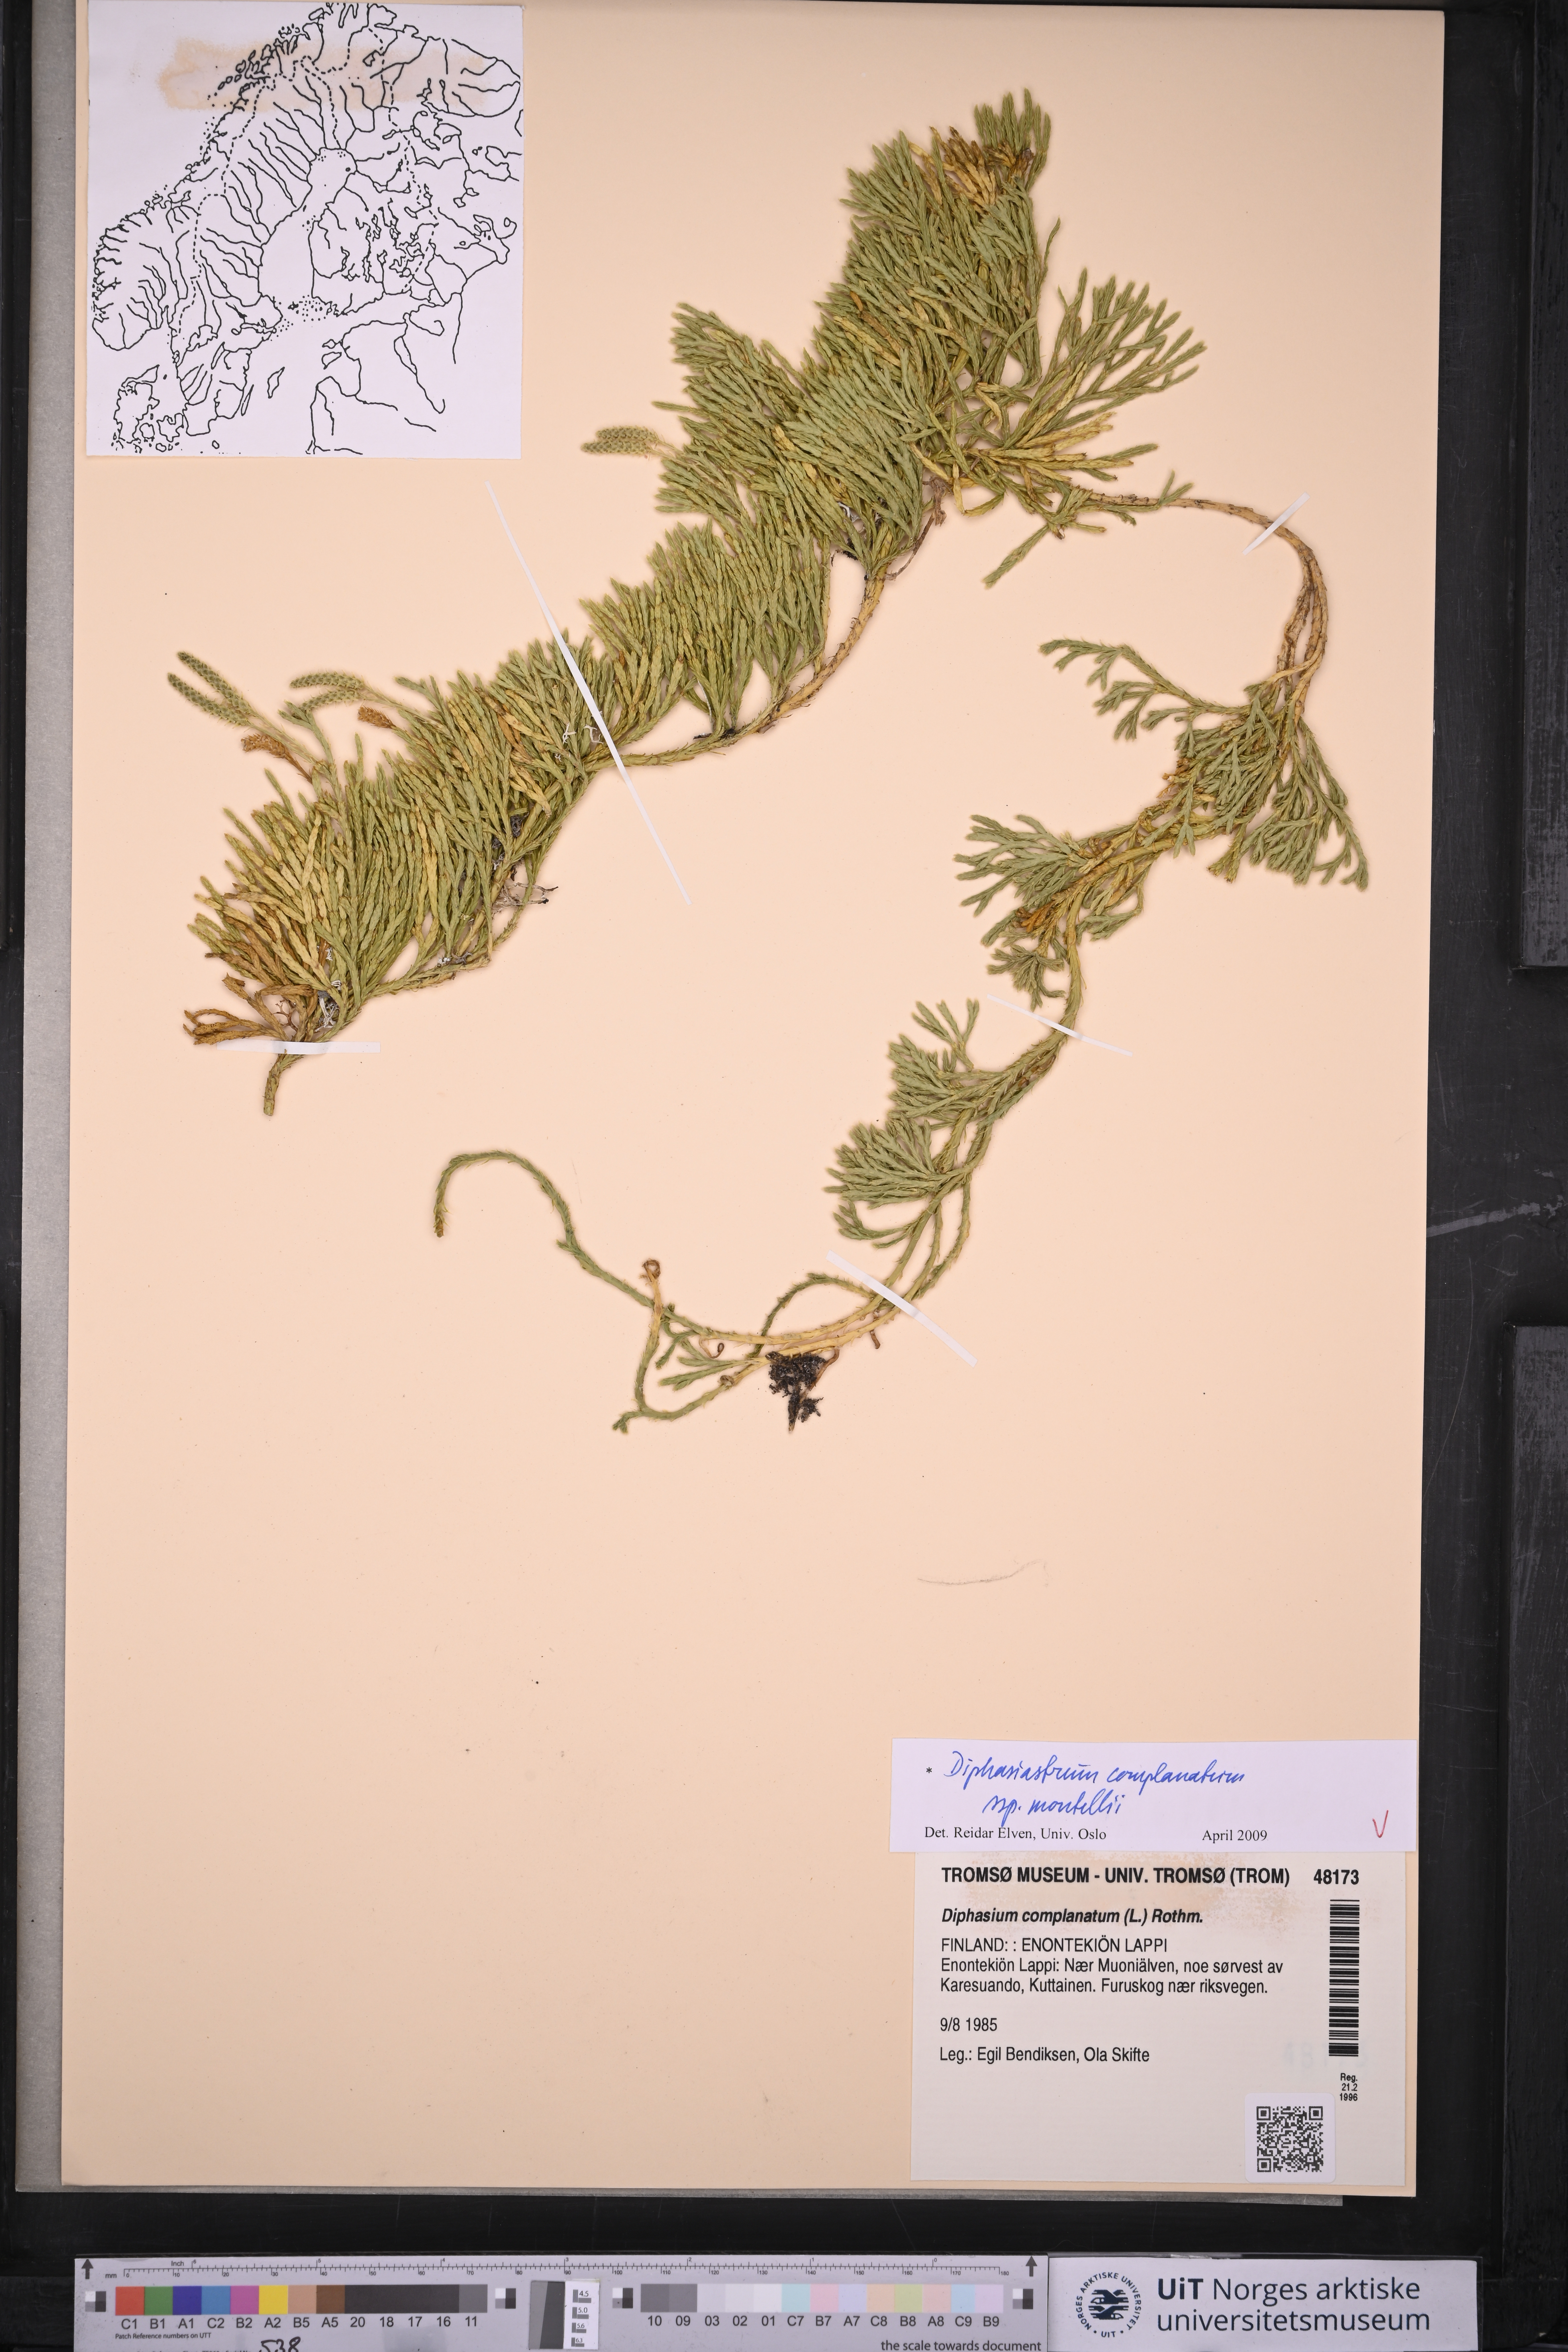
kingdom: Plantae
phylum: Tracheophyta
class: Lycopodiopsida
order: Lycopodiales
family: Lycopodiaceae
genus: Diphasiastrum
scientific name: Diphasiastrum complanatum
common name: Northern running-pine
